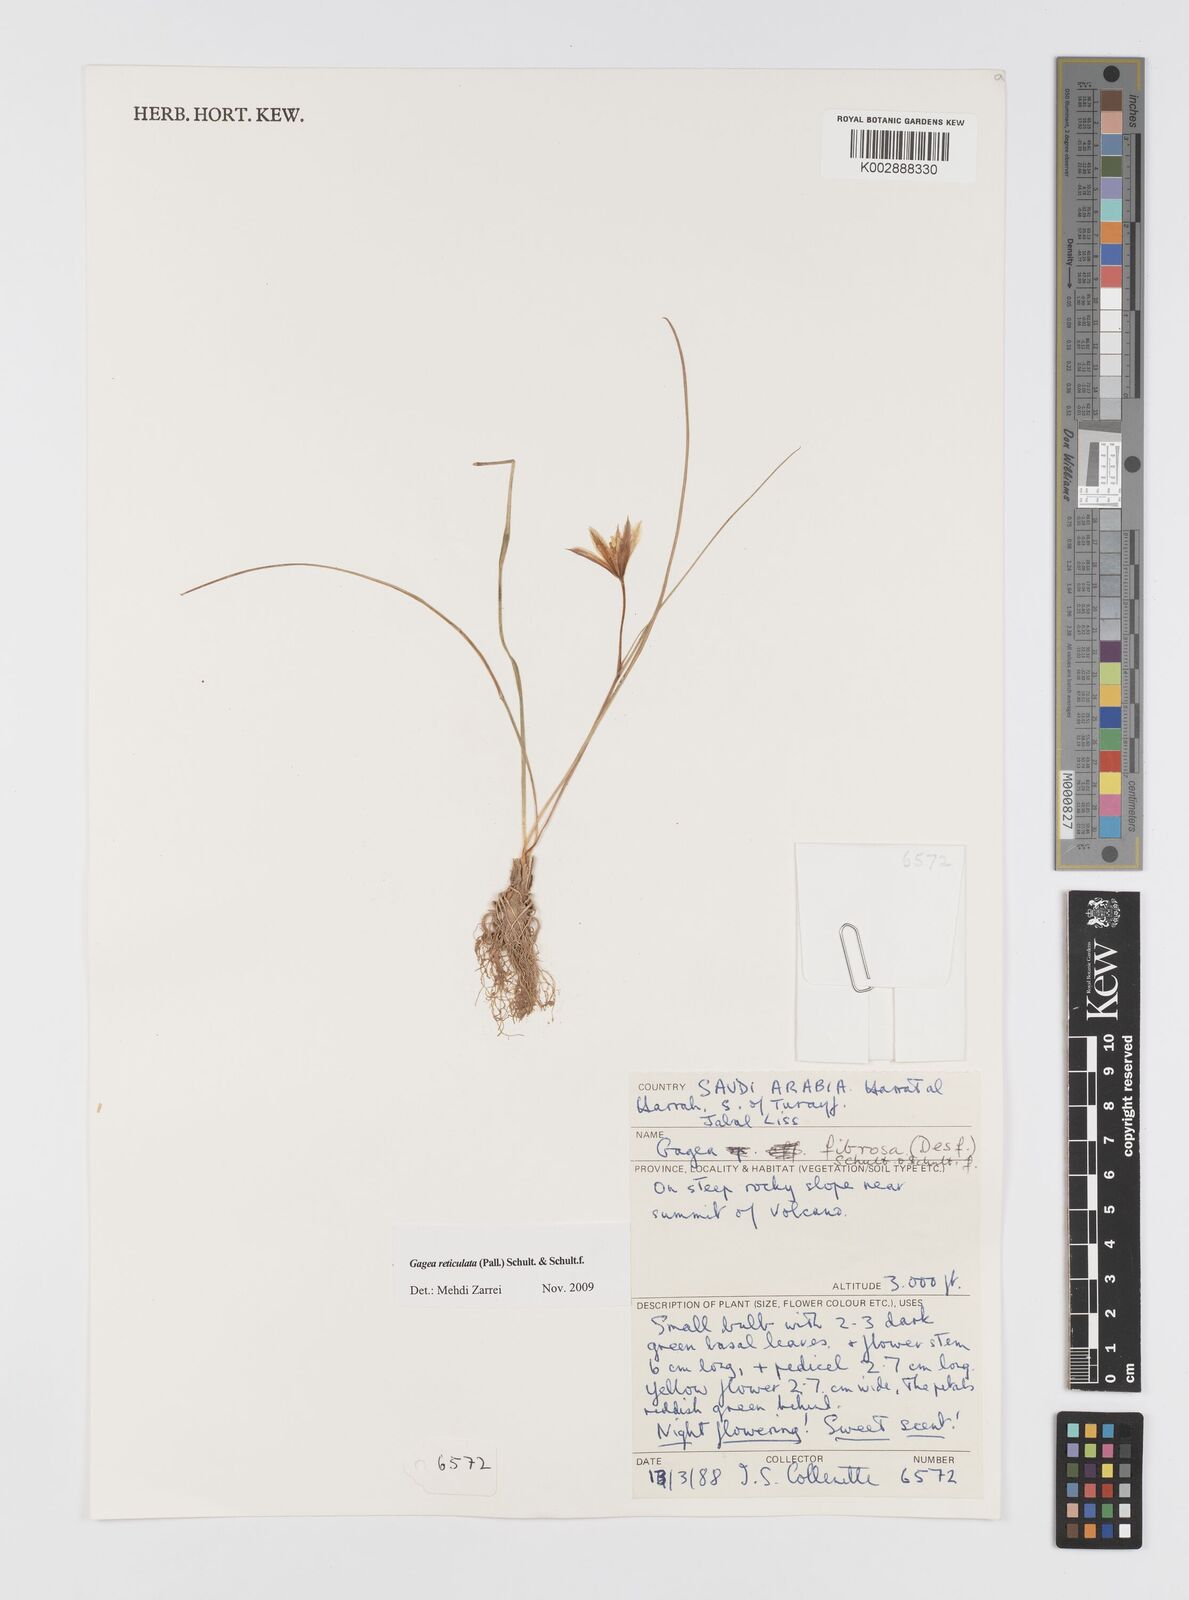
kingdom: Plantae
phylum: Tracheophyta
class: Liliopsida
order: Liliales
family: Liliaceae
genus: Gagea
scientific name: Gagea reticulata
